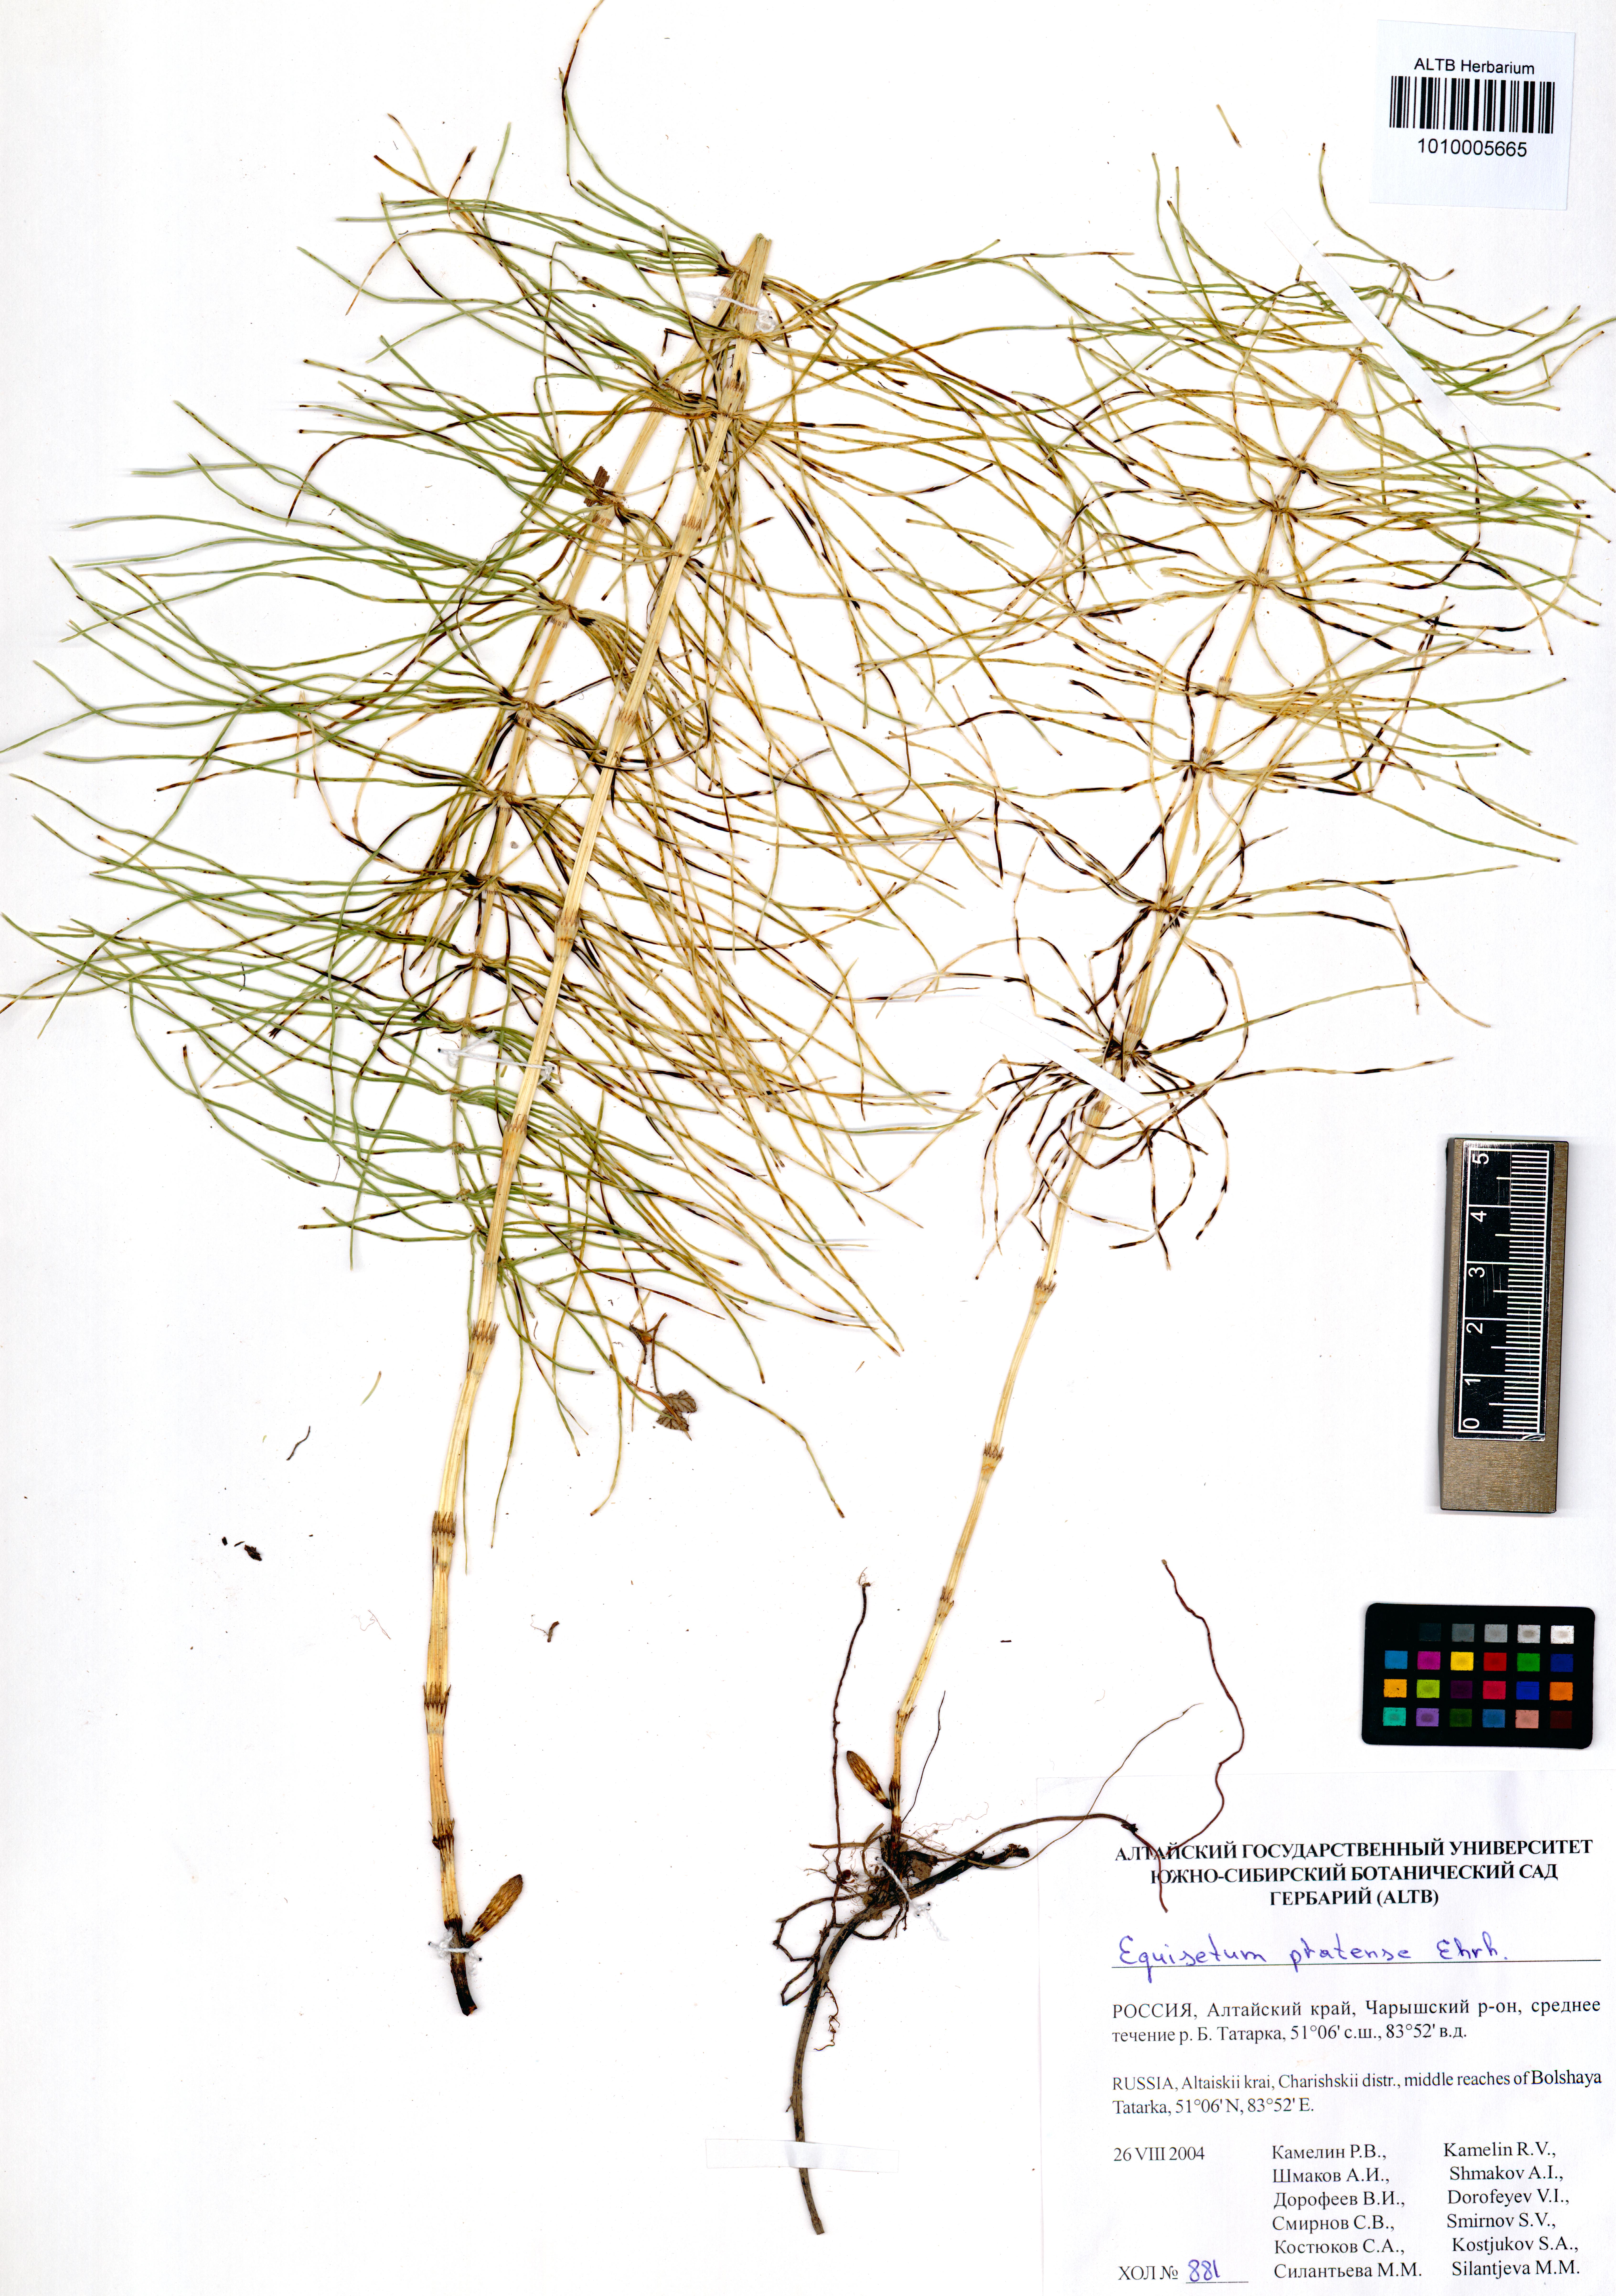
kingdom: Plantae
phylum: Tracheophyta
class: Polypodiopsida
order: Equisetales
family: Equisetaceae
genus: Equisetum
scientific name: Equisetum pratense
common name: Meadow horsetail
